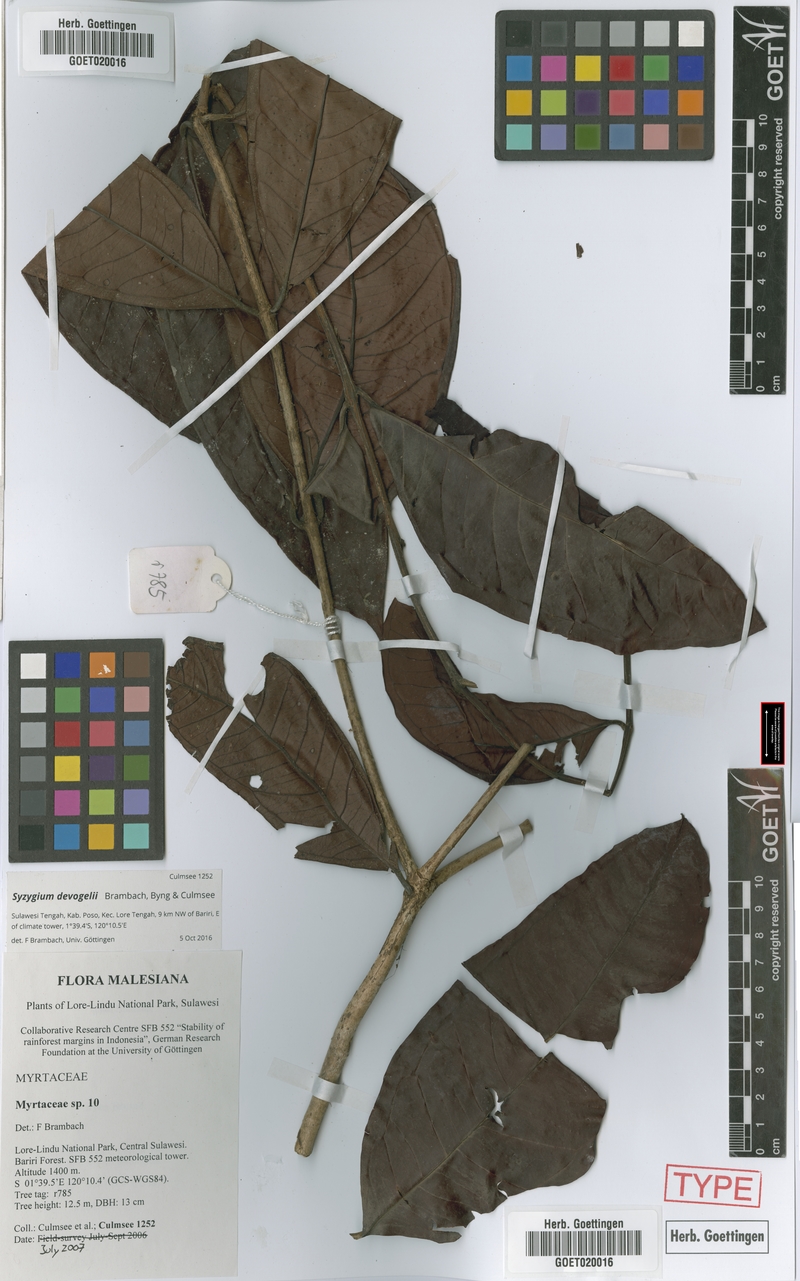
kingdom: Plantae
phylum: Tracheophyta
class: Magnoliopsida
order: Myrtales
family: Myrtaceae
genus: Syzygium
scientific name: Syzygium devogelii
